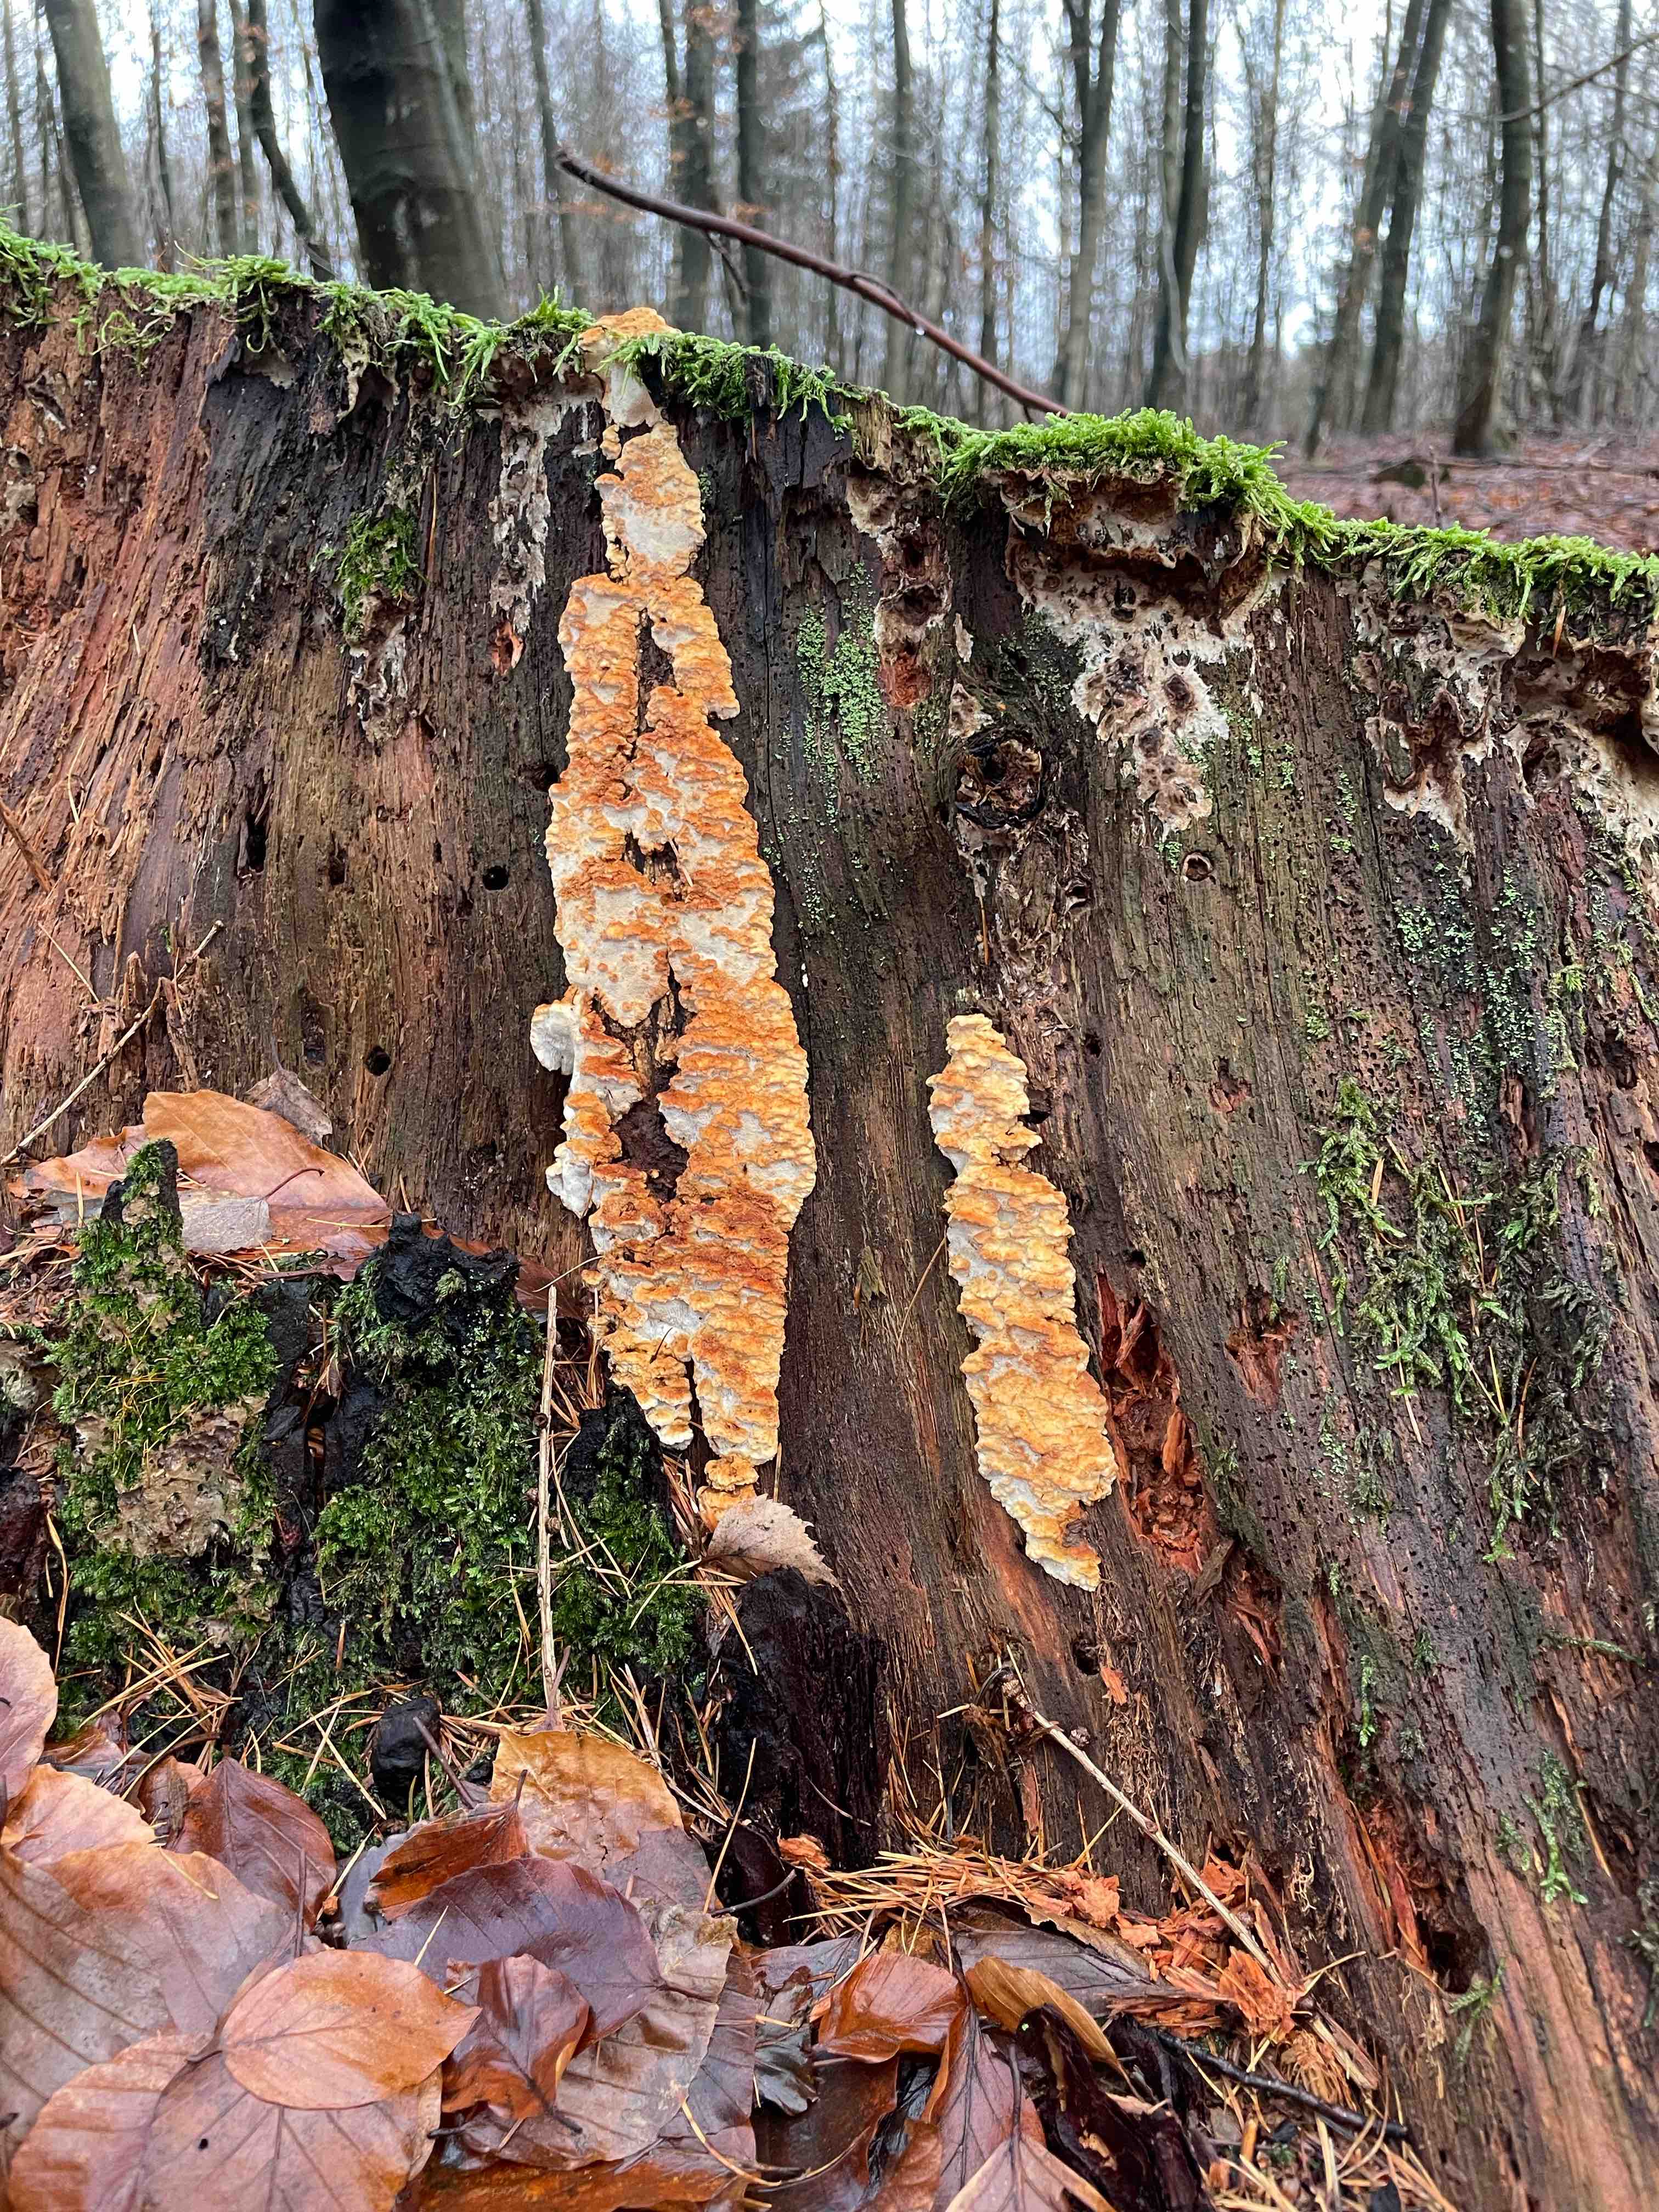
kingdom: Fungi
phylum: Basidiomycota
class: Agaricomycetes
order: Polyporales
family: Fomitopsidaceae
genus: Neoantrodia
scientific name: Neoantrodia serialis
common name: række-sejporesvamp
